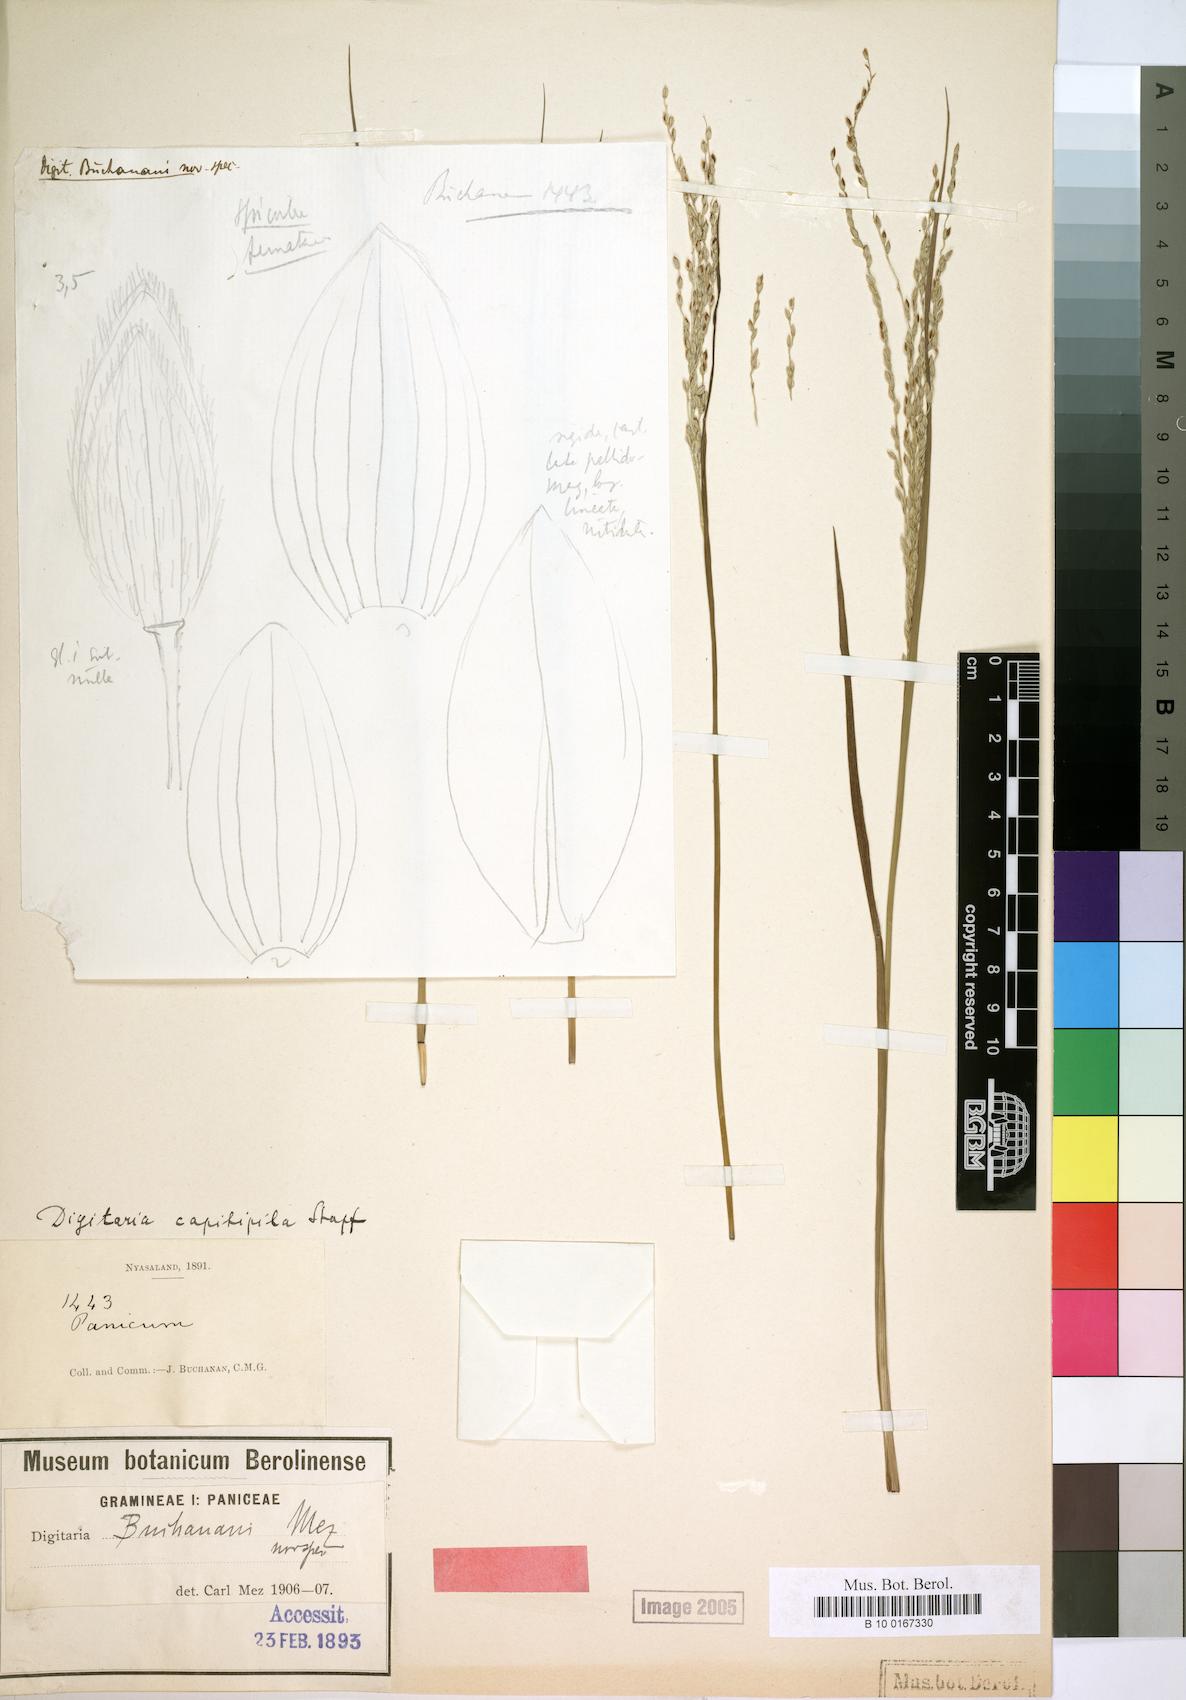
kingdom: Plantae
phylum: Tracheophyta
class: Liliopsida
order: Poales
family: Poaceae
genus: Digitaria
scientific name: Digitaria compressa
